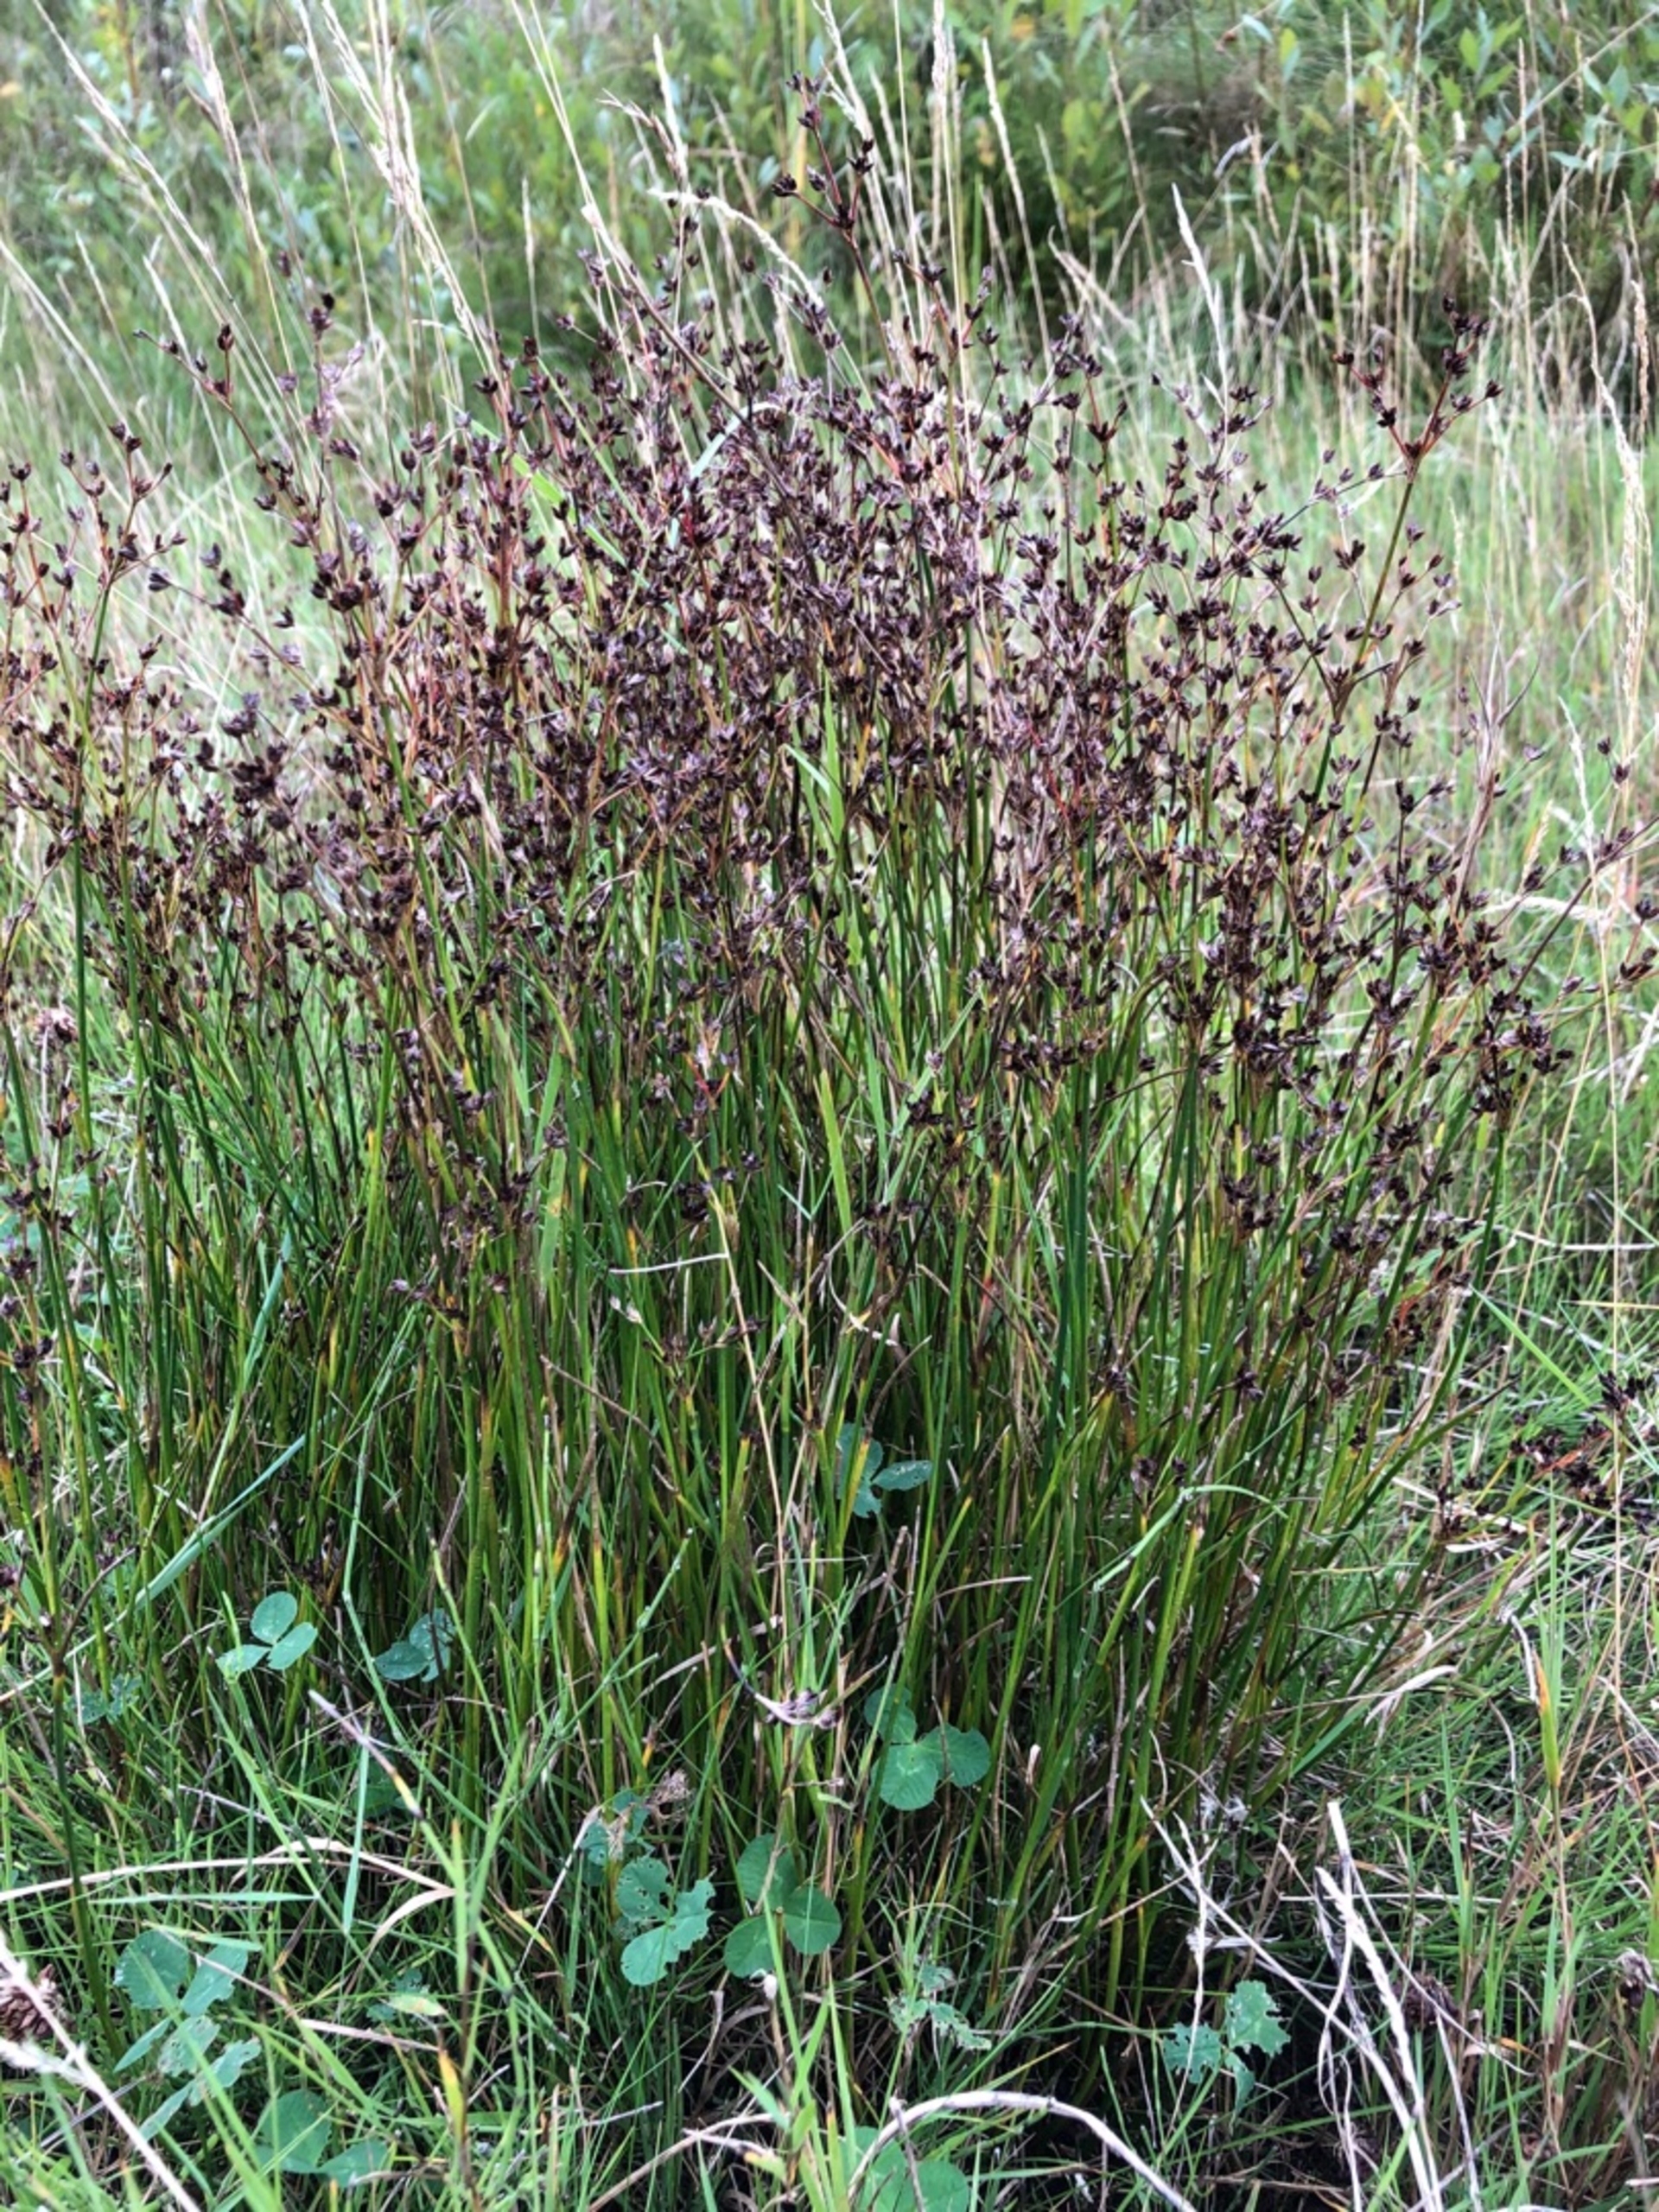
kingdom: Plantae
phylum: Tracheophyta
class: Liliopsida
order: Poales
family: Juncaceae
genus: Juncus
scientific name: Juncus articulatus
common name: Glanskapslet siv
